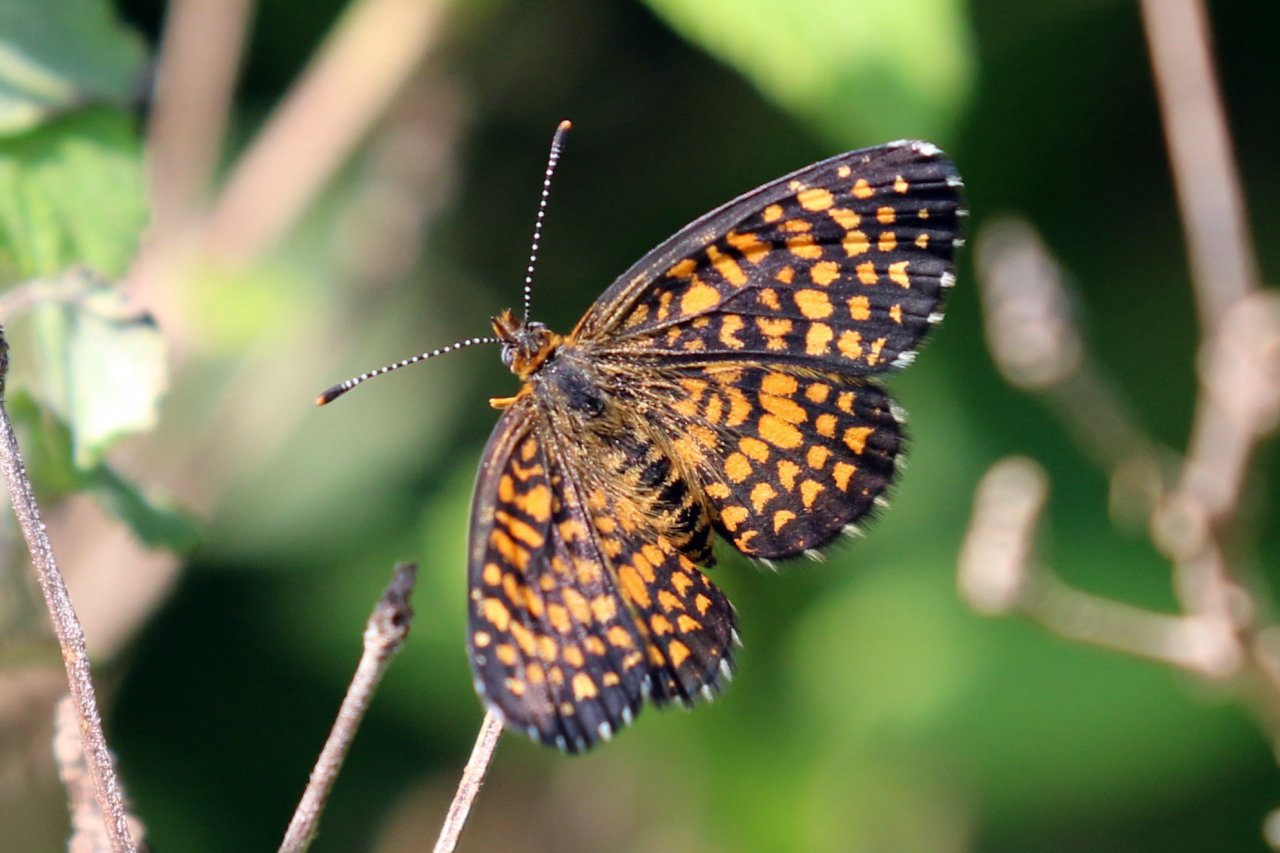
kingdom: Animalia
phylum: Arthropoda
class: Insecta
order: Lepidoptera
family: Nymphalidae
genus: Texola
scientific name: Texola elada
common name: Elada Checkerspot
